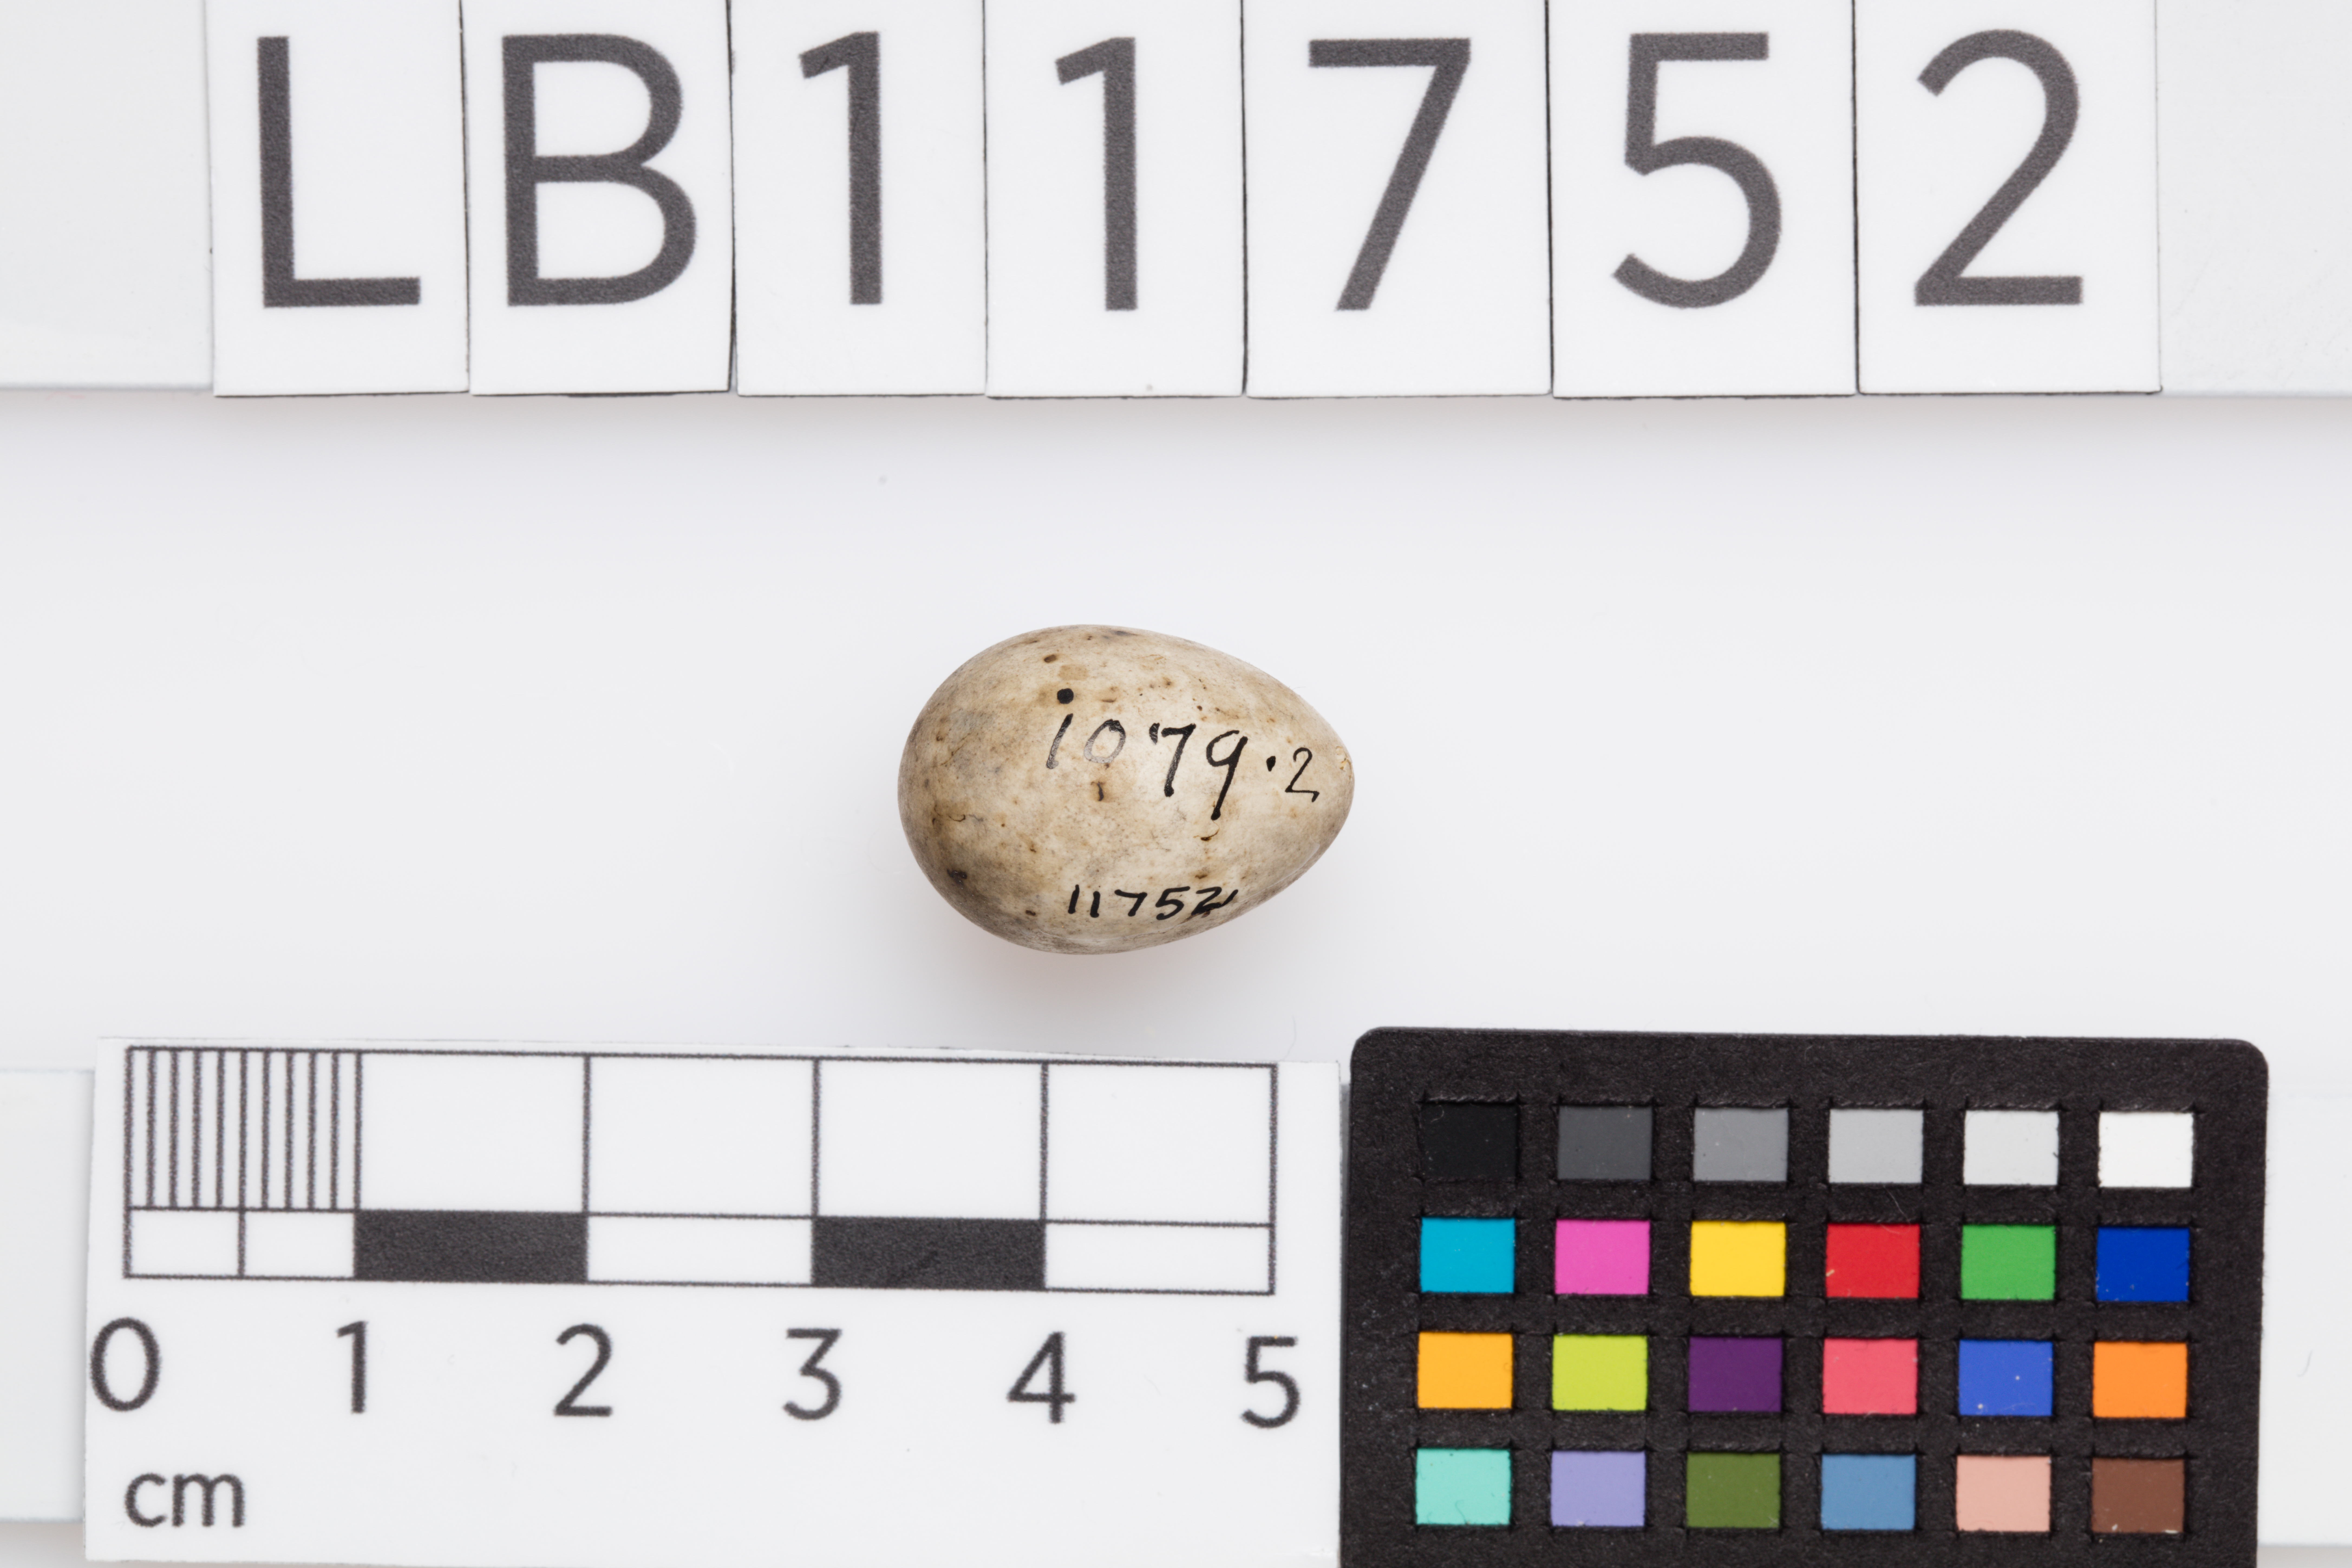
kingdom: Animalia
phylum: Chordata
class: Aves
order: Passeriformes
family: Sylviidae
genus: Sylvia
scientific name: Sylvia communis
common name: Common whitethroat
